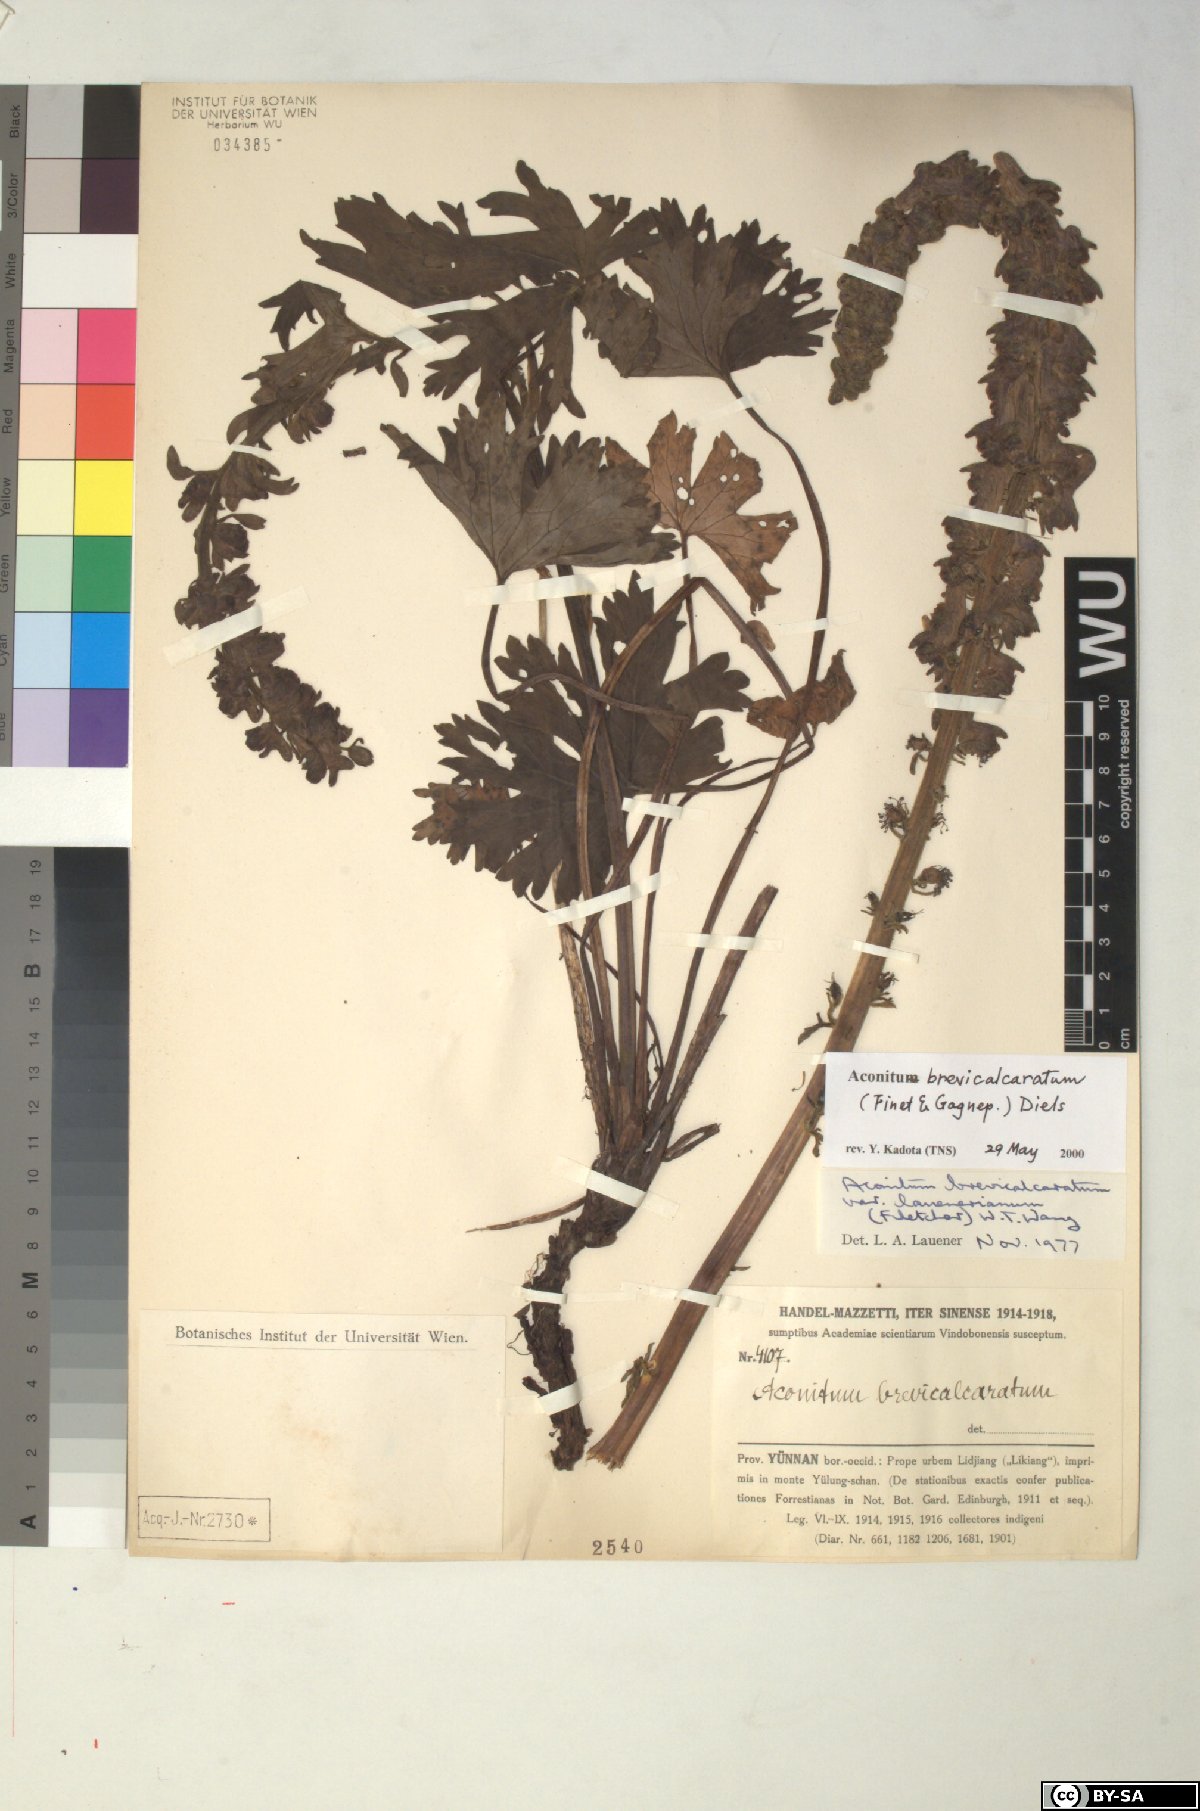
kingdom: Plantae
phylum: Tracheophyta
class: Magnoliopsida
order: Ranunculales
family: Ranunculaceae
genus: Aconitum
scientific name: Aconitum brevicalcaratum
